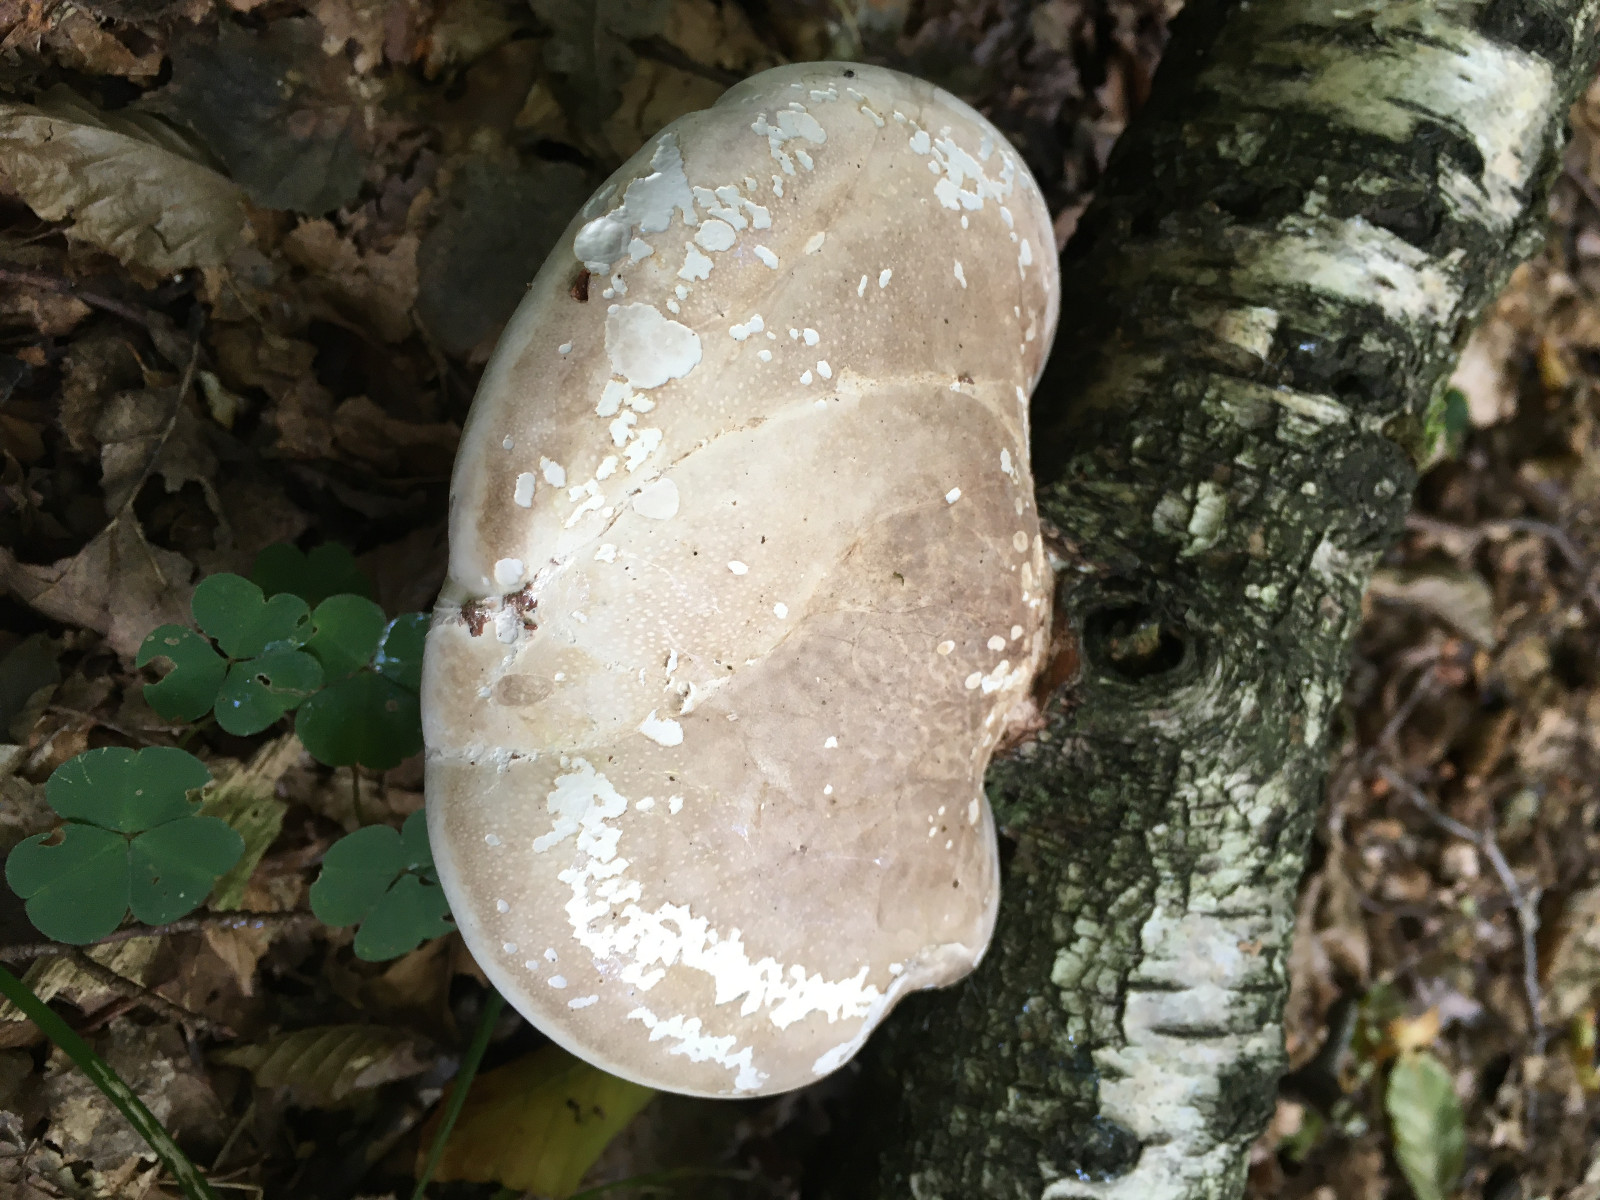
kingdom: Fungi
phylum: Basidiomycota
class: Agaricomycetes
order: Polyporales
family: Fomitopsidaceae
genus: Fomitopsis
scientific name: Fomitopsis betulina
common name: birkeporesvamp
